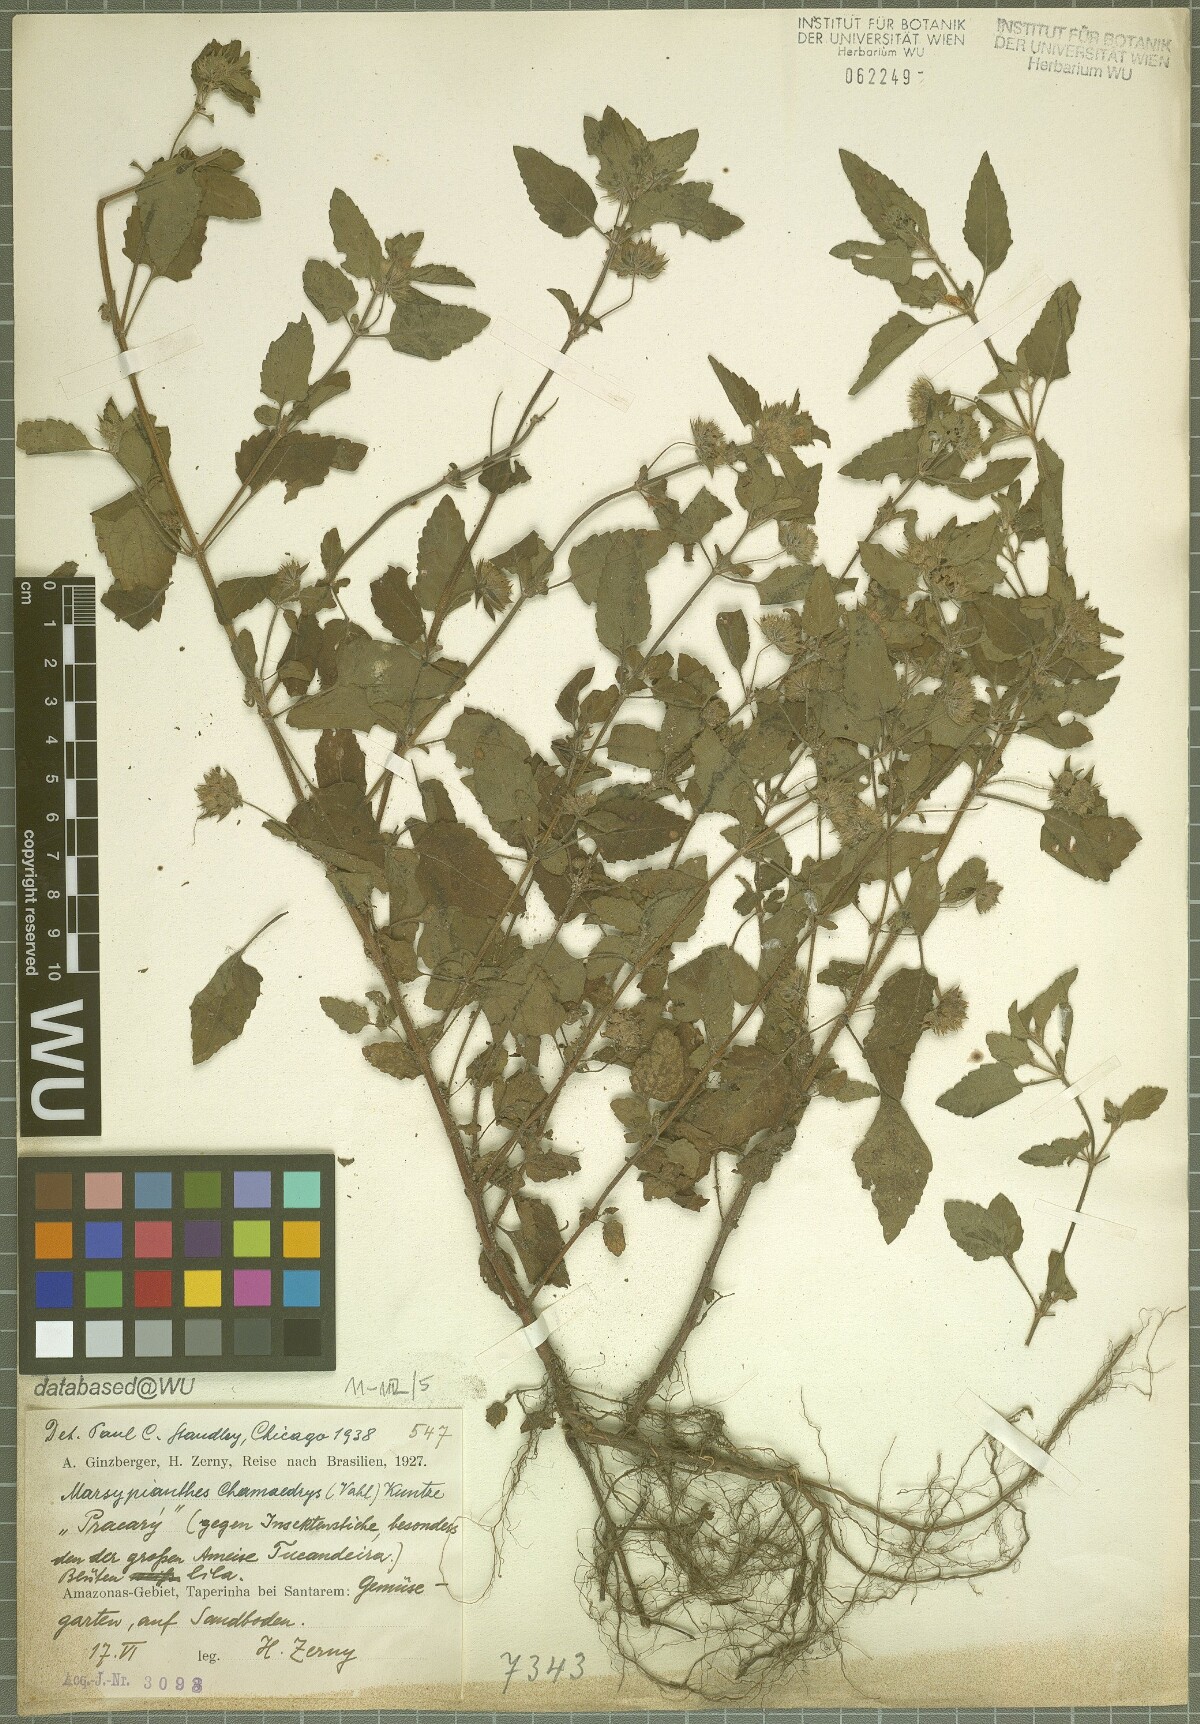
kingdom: Plantae
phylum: Tracheophyta
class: Magnoliopsida
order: Lamiales
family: Lamiaceae
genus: Marsypianthes
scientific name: Marsypianthes chamaedrys
